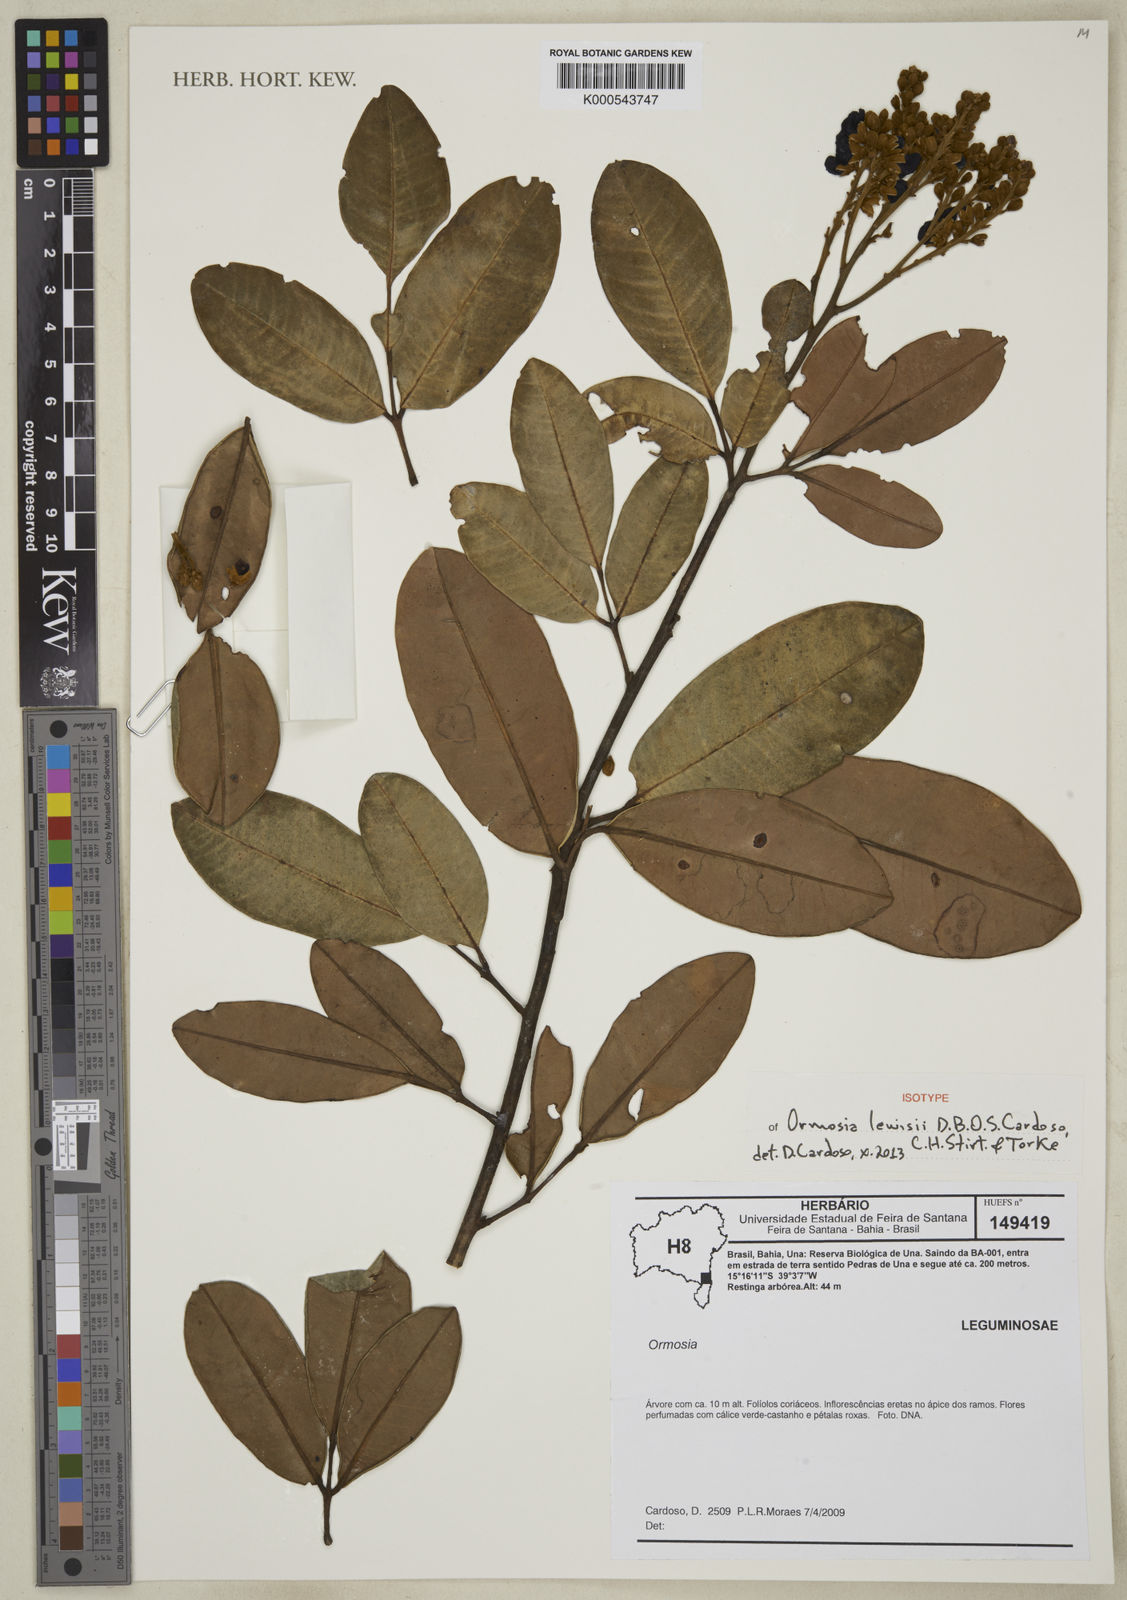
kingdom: Plantae
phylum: Tracheophyta
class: Magnoliopsida
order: Fabales
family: Fabaceae
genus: Ormosia
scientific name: Ormosia lewisii
